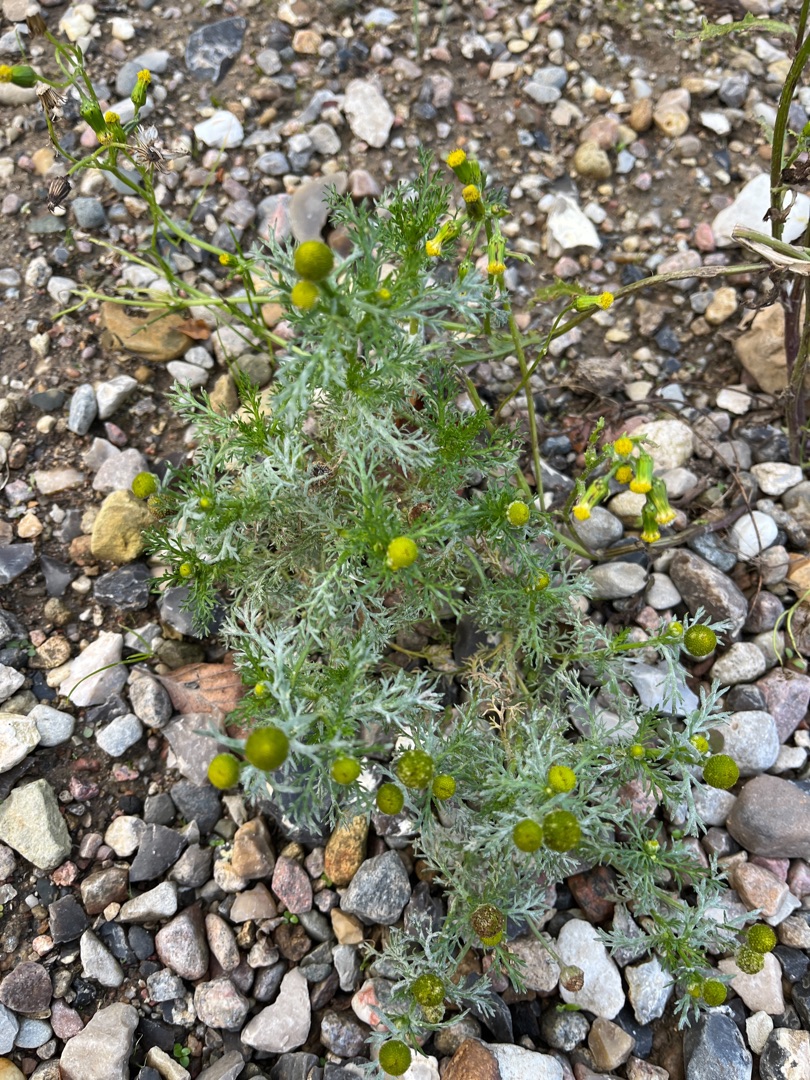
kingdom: Plantae
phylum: Tracheophyta
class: Magnoliopsida
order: Asterales
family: Asteraceae
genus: Matricaria
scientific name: Matricaria discoidea
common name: Skive-kamille
